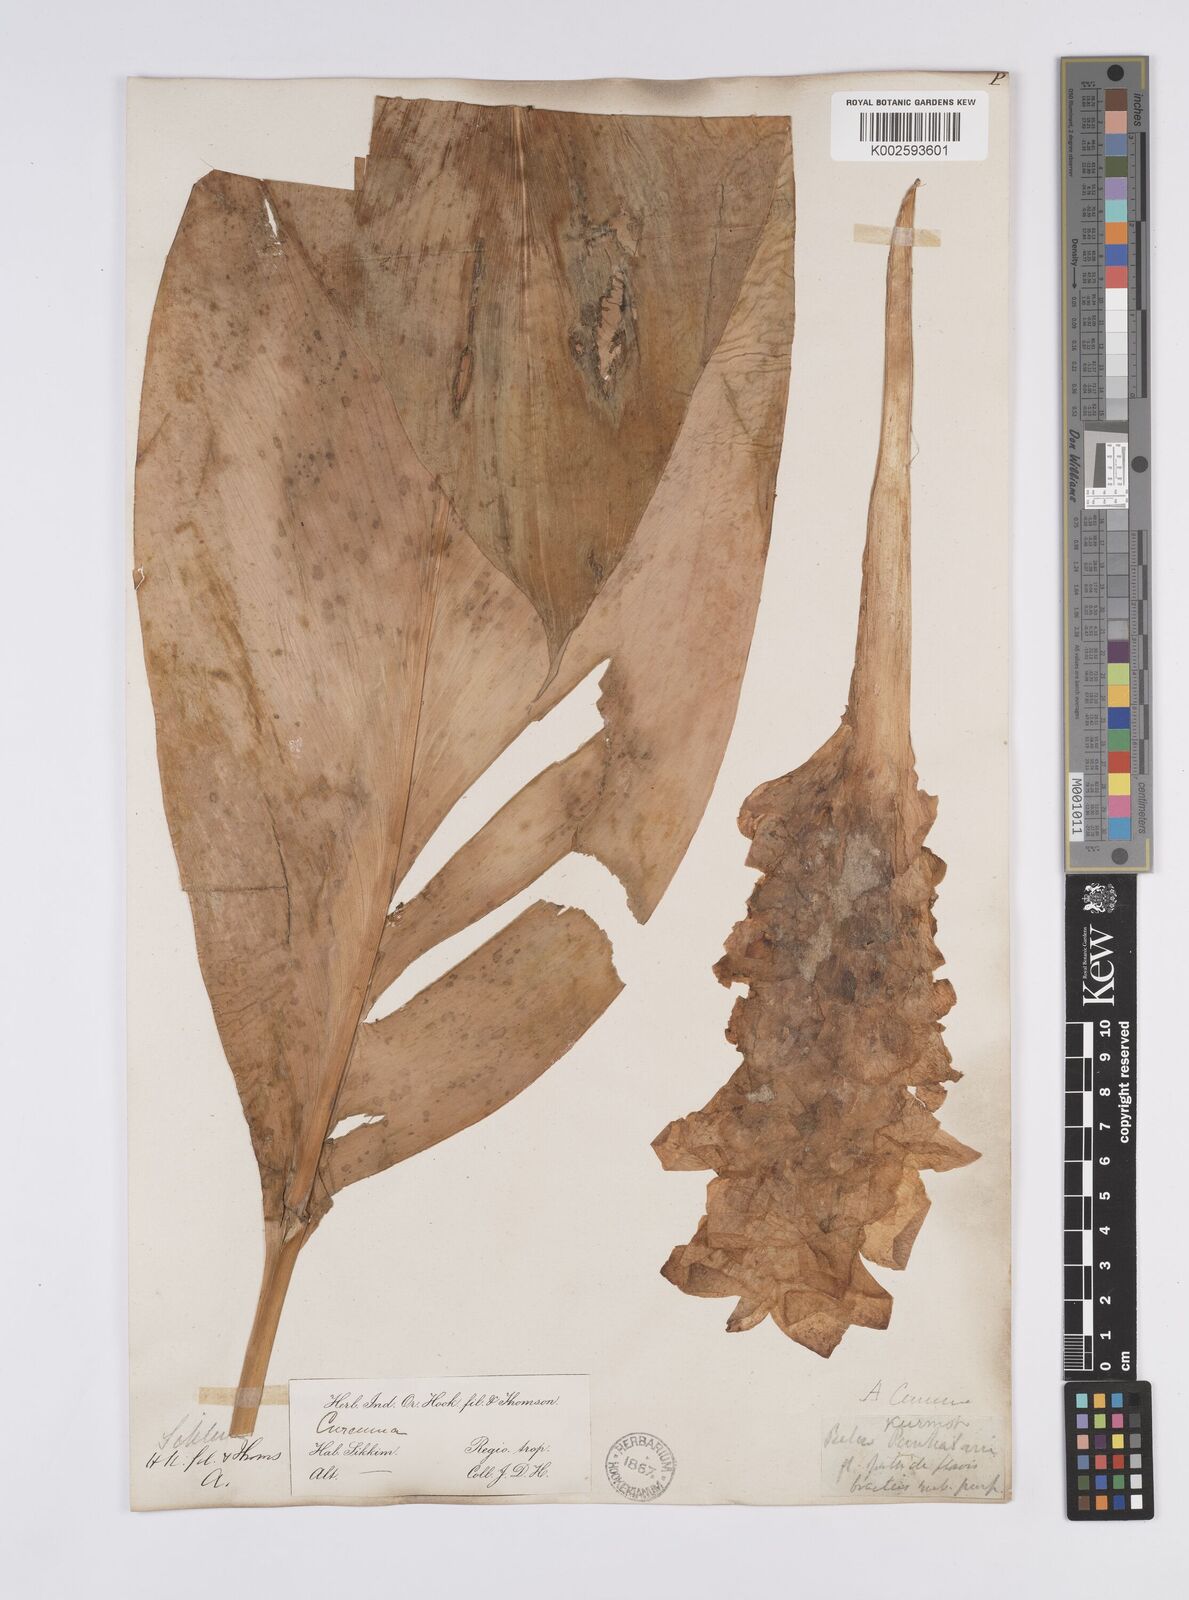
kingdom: Plantae
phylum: Tracheophyta
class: Liliopsida
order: Zingiberales
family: Zingiberaceae
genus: Curcuma
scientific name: Curcuma aromatica
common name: Wild turmeric
